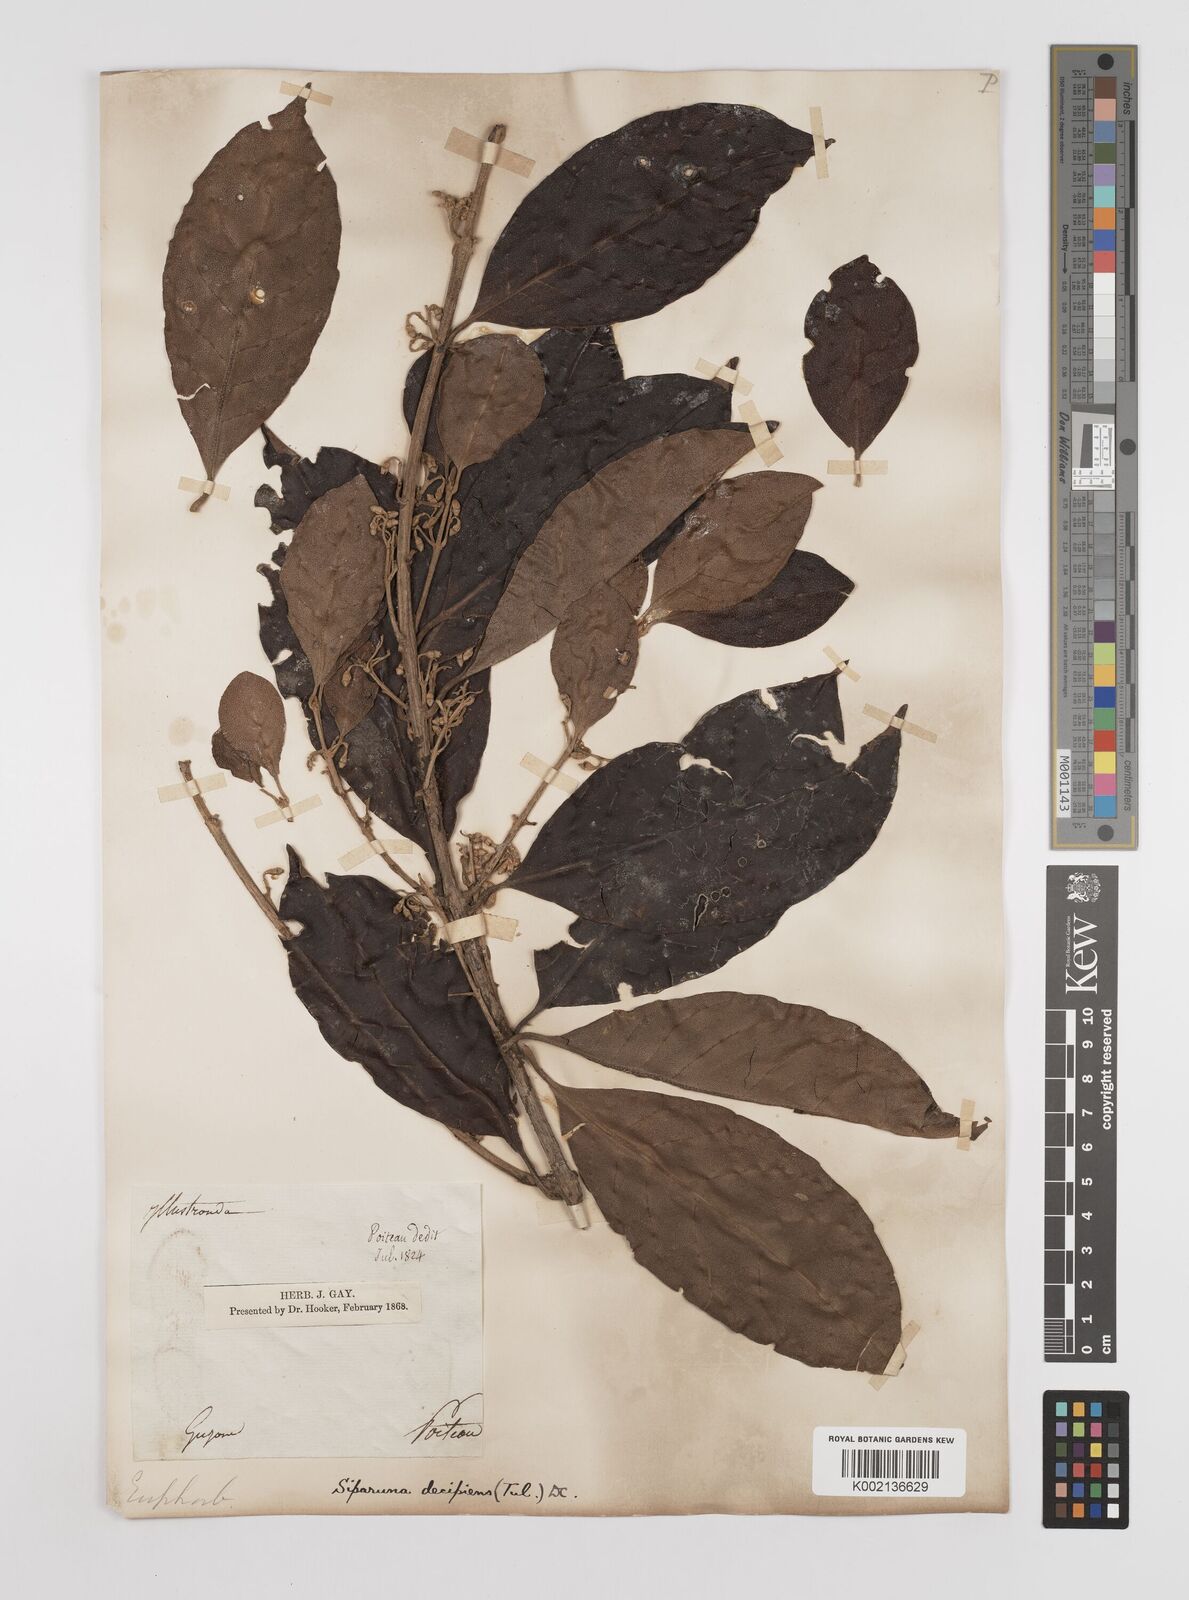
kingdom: Plantae
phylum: Tracheophyta
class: Magnoliopsida
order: Laurales
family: Siparunaceae
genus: Siparuna
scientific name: Siparuna decipiens
